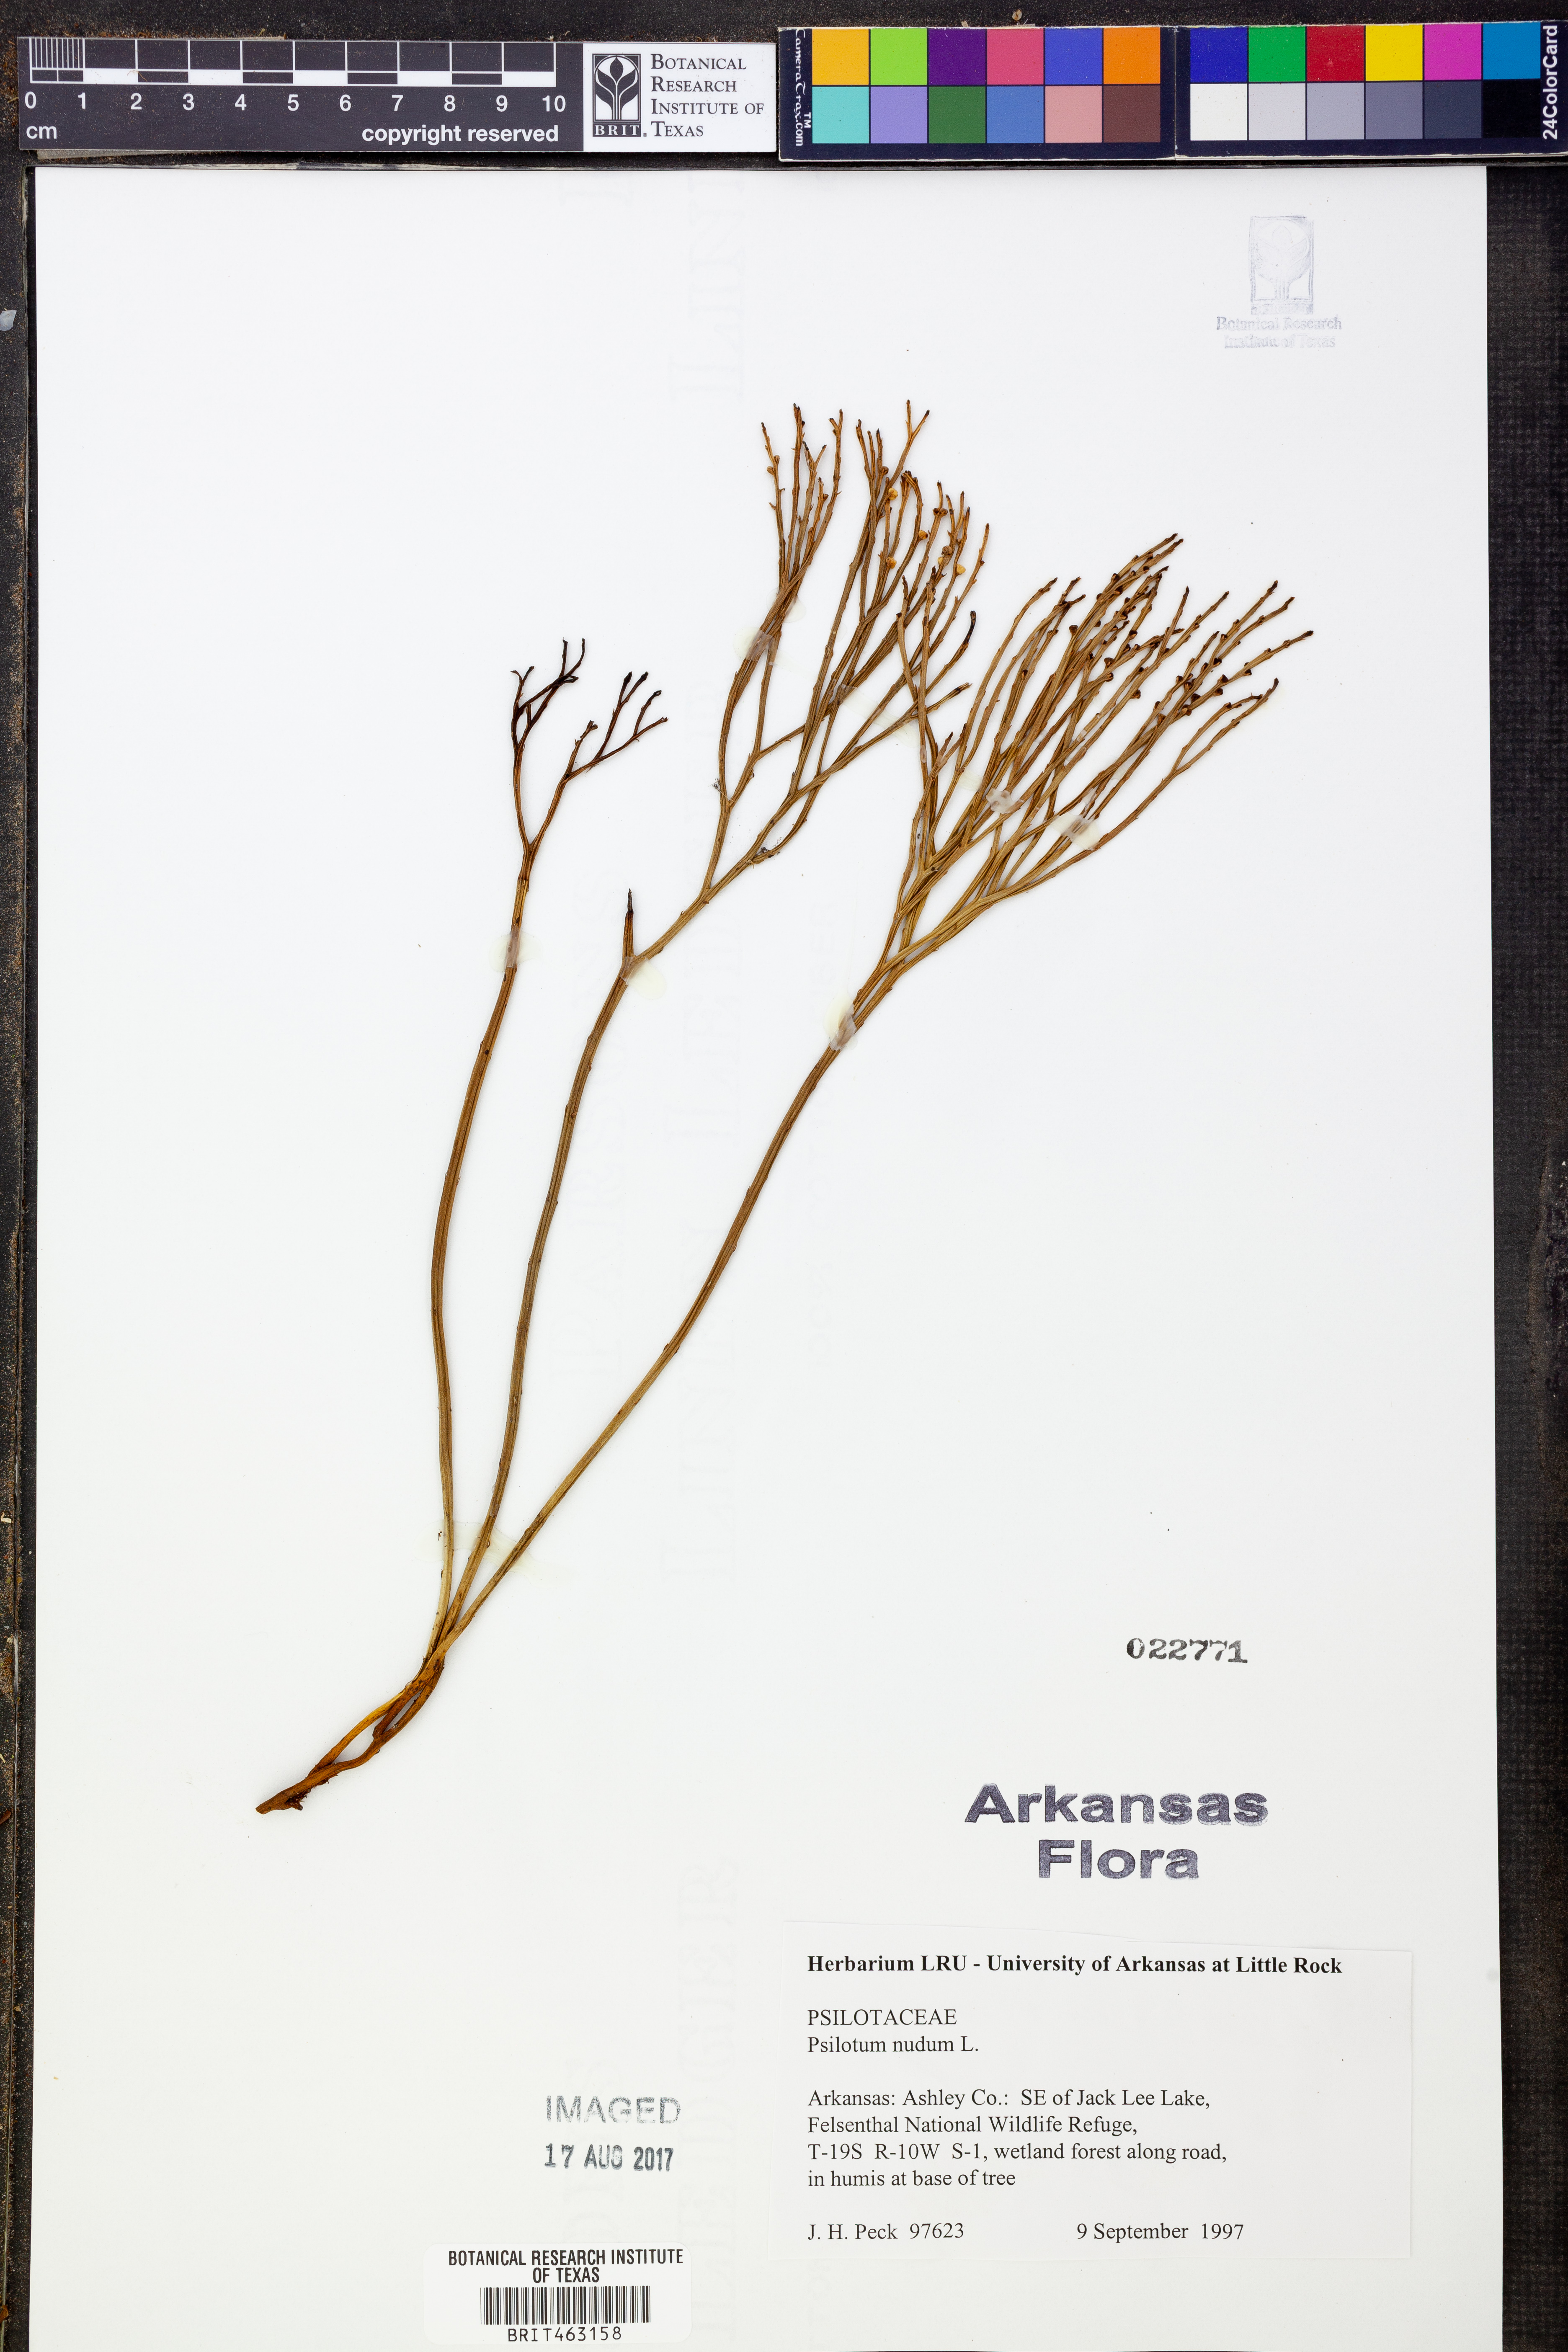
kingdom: Plantae
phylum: Tracheophyta
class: Polypodiopsida
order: Psilotales
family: Psilotaceae
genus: Psilotum
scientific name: Psilotum nudum
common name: Skeleton fork fern
